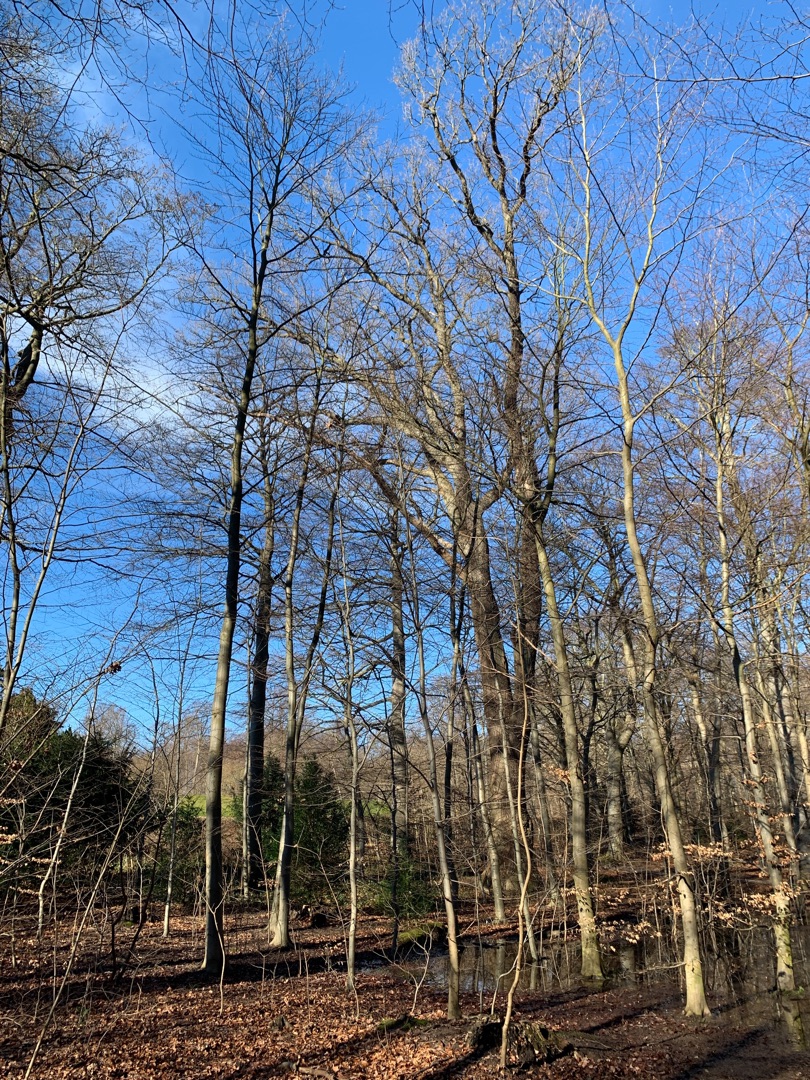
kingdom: Animalia
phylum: Chordata
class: Aves
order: Piciformes
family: Picidae
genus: Dendrocopos
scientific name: Dendrocopos major
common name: Stor flagspætte
